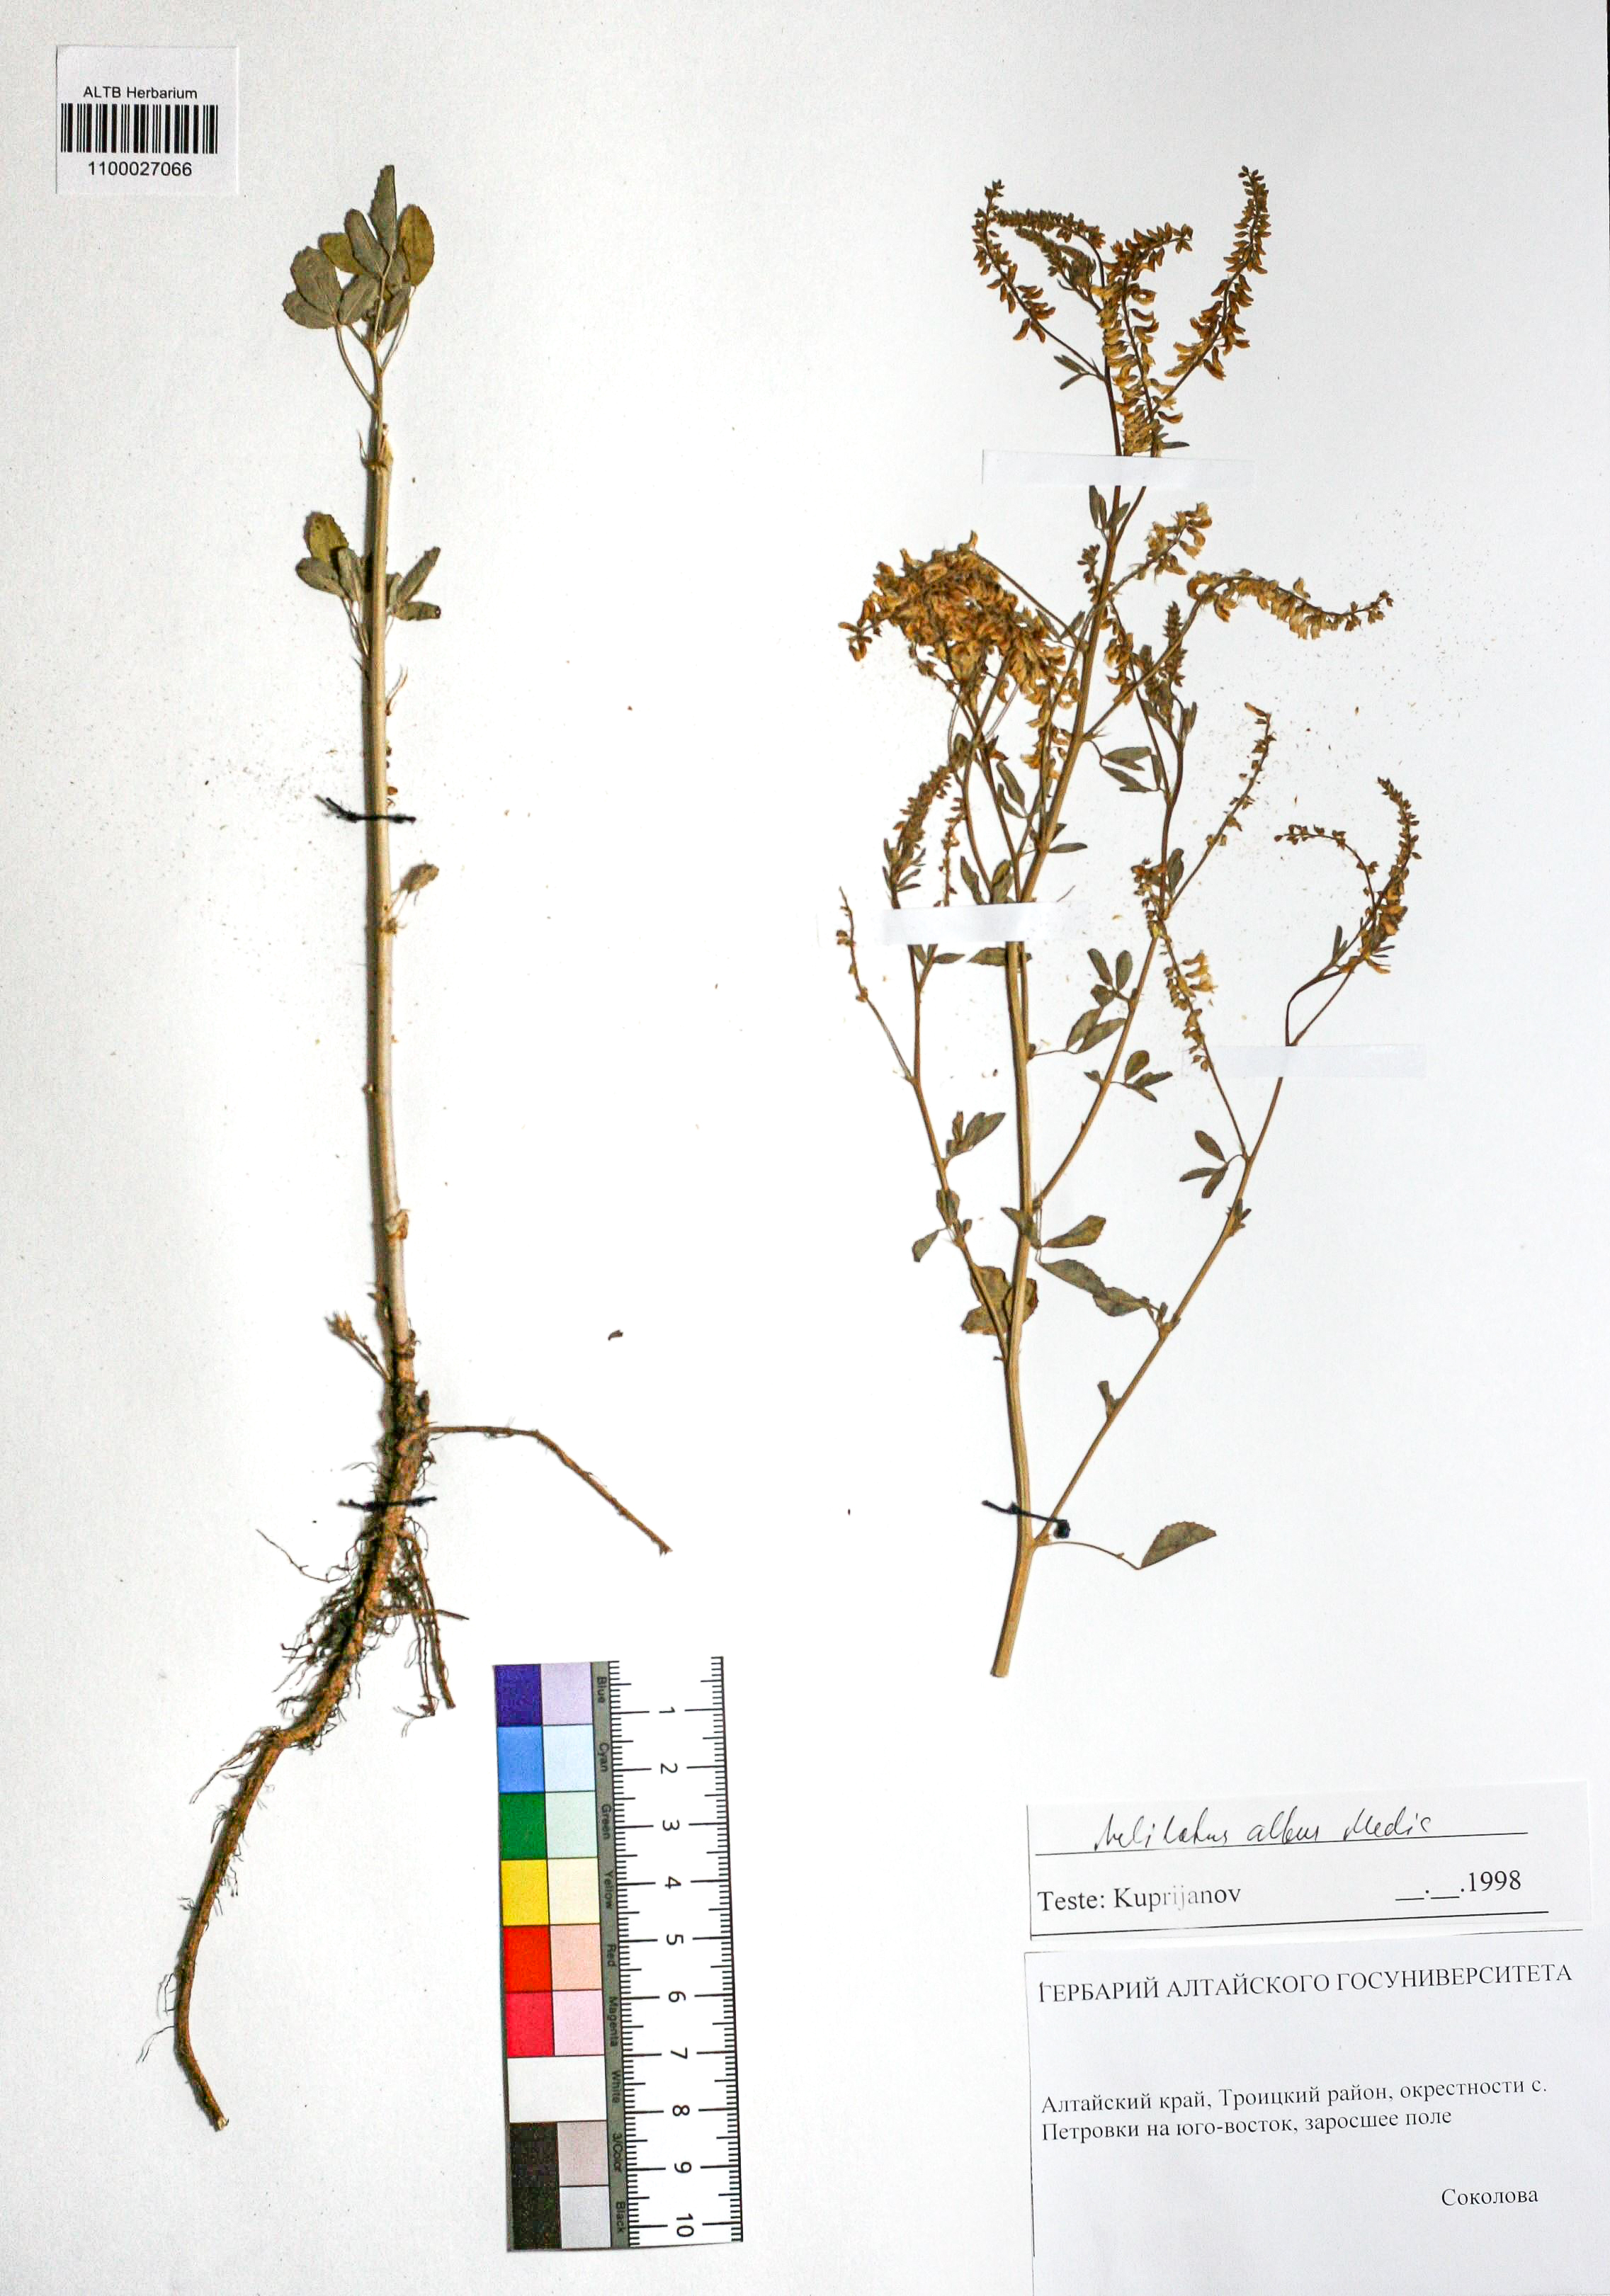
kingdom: Plantae
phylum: Tracheophyta
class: Magnoliopsida
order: Fabales
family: Fabaceae
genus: Melilotus
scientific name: Melilotus albus
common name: White melilot
